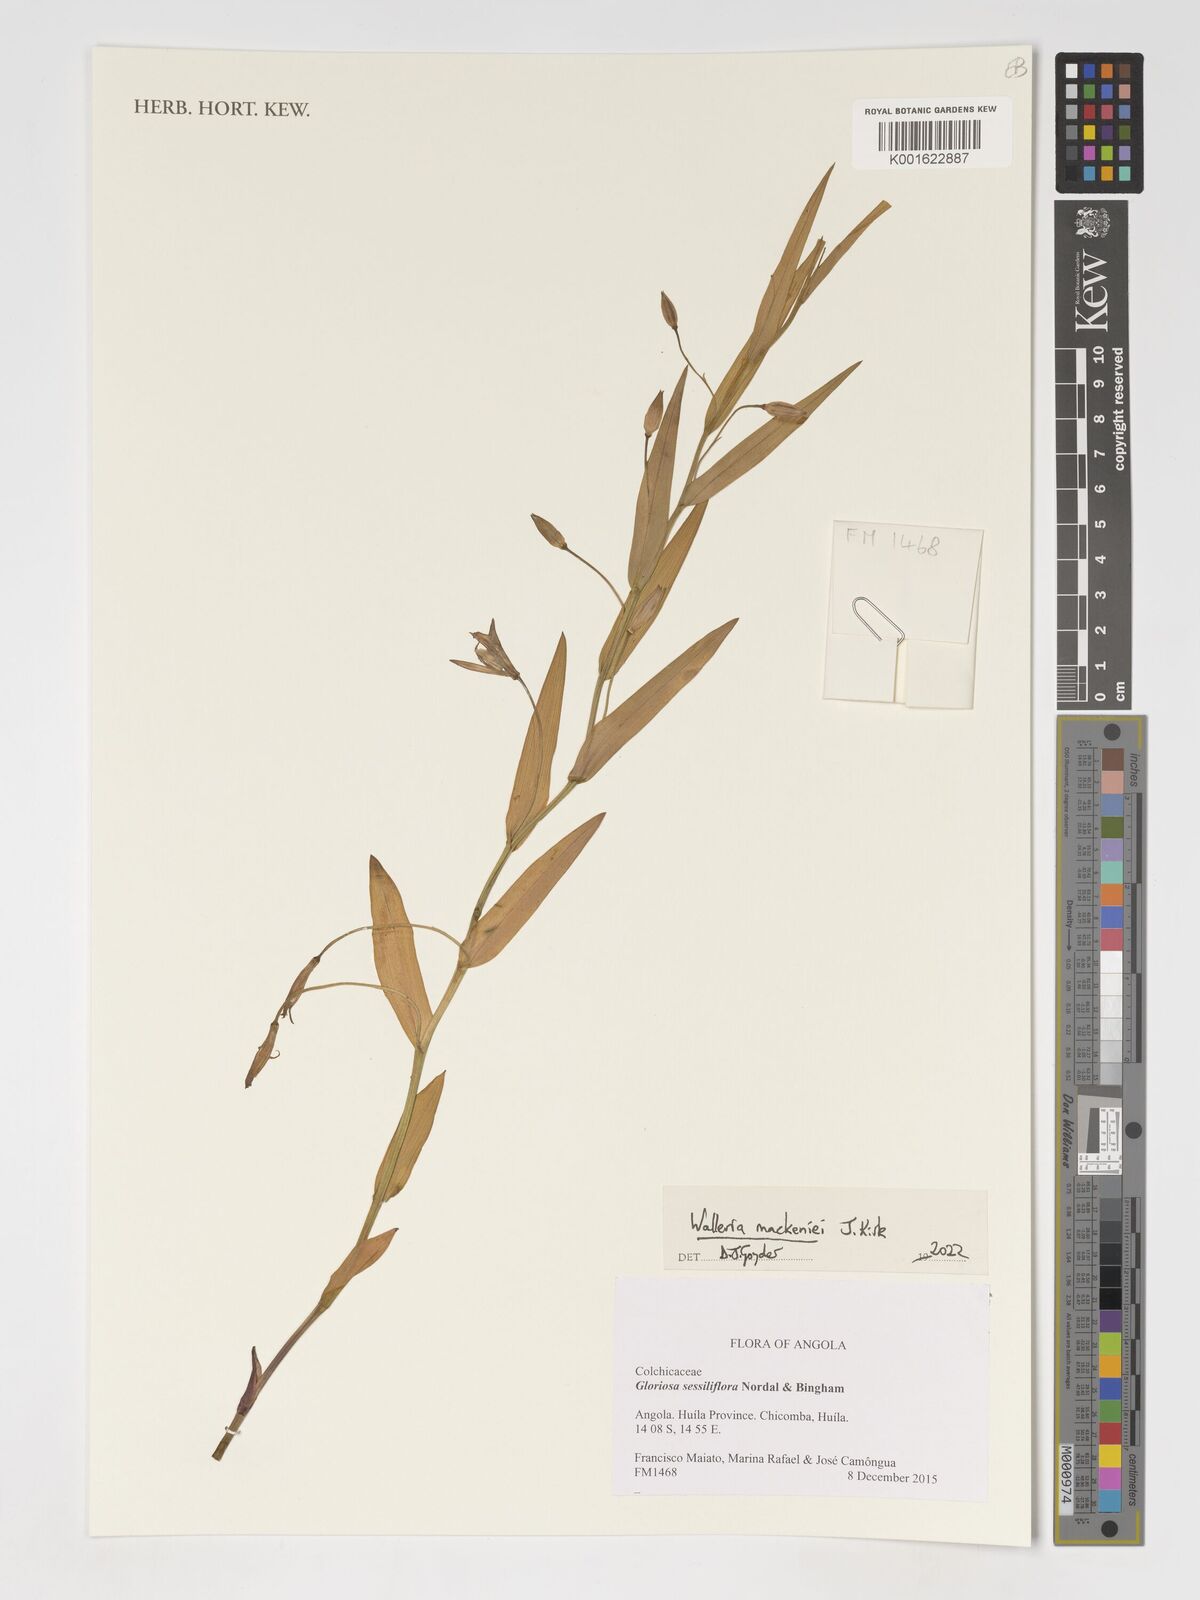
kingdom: Plantae
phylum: Tracheophyta
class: Liliopsida
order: Asparagales
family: Tecophilaeaceae
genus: Walleria
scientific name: Walleria
